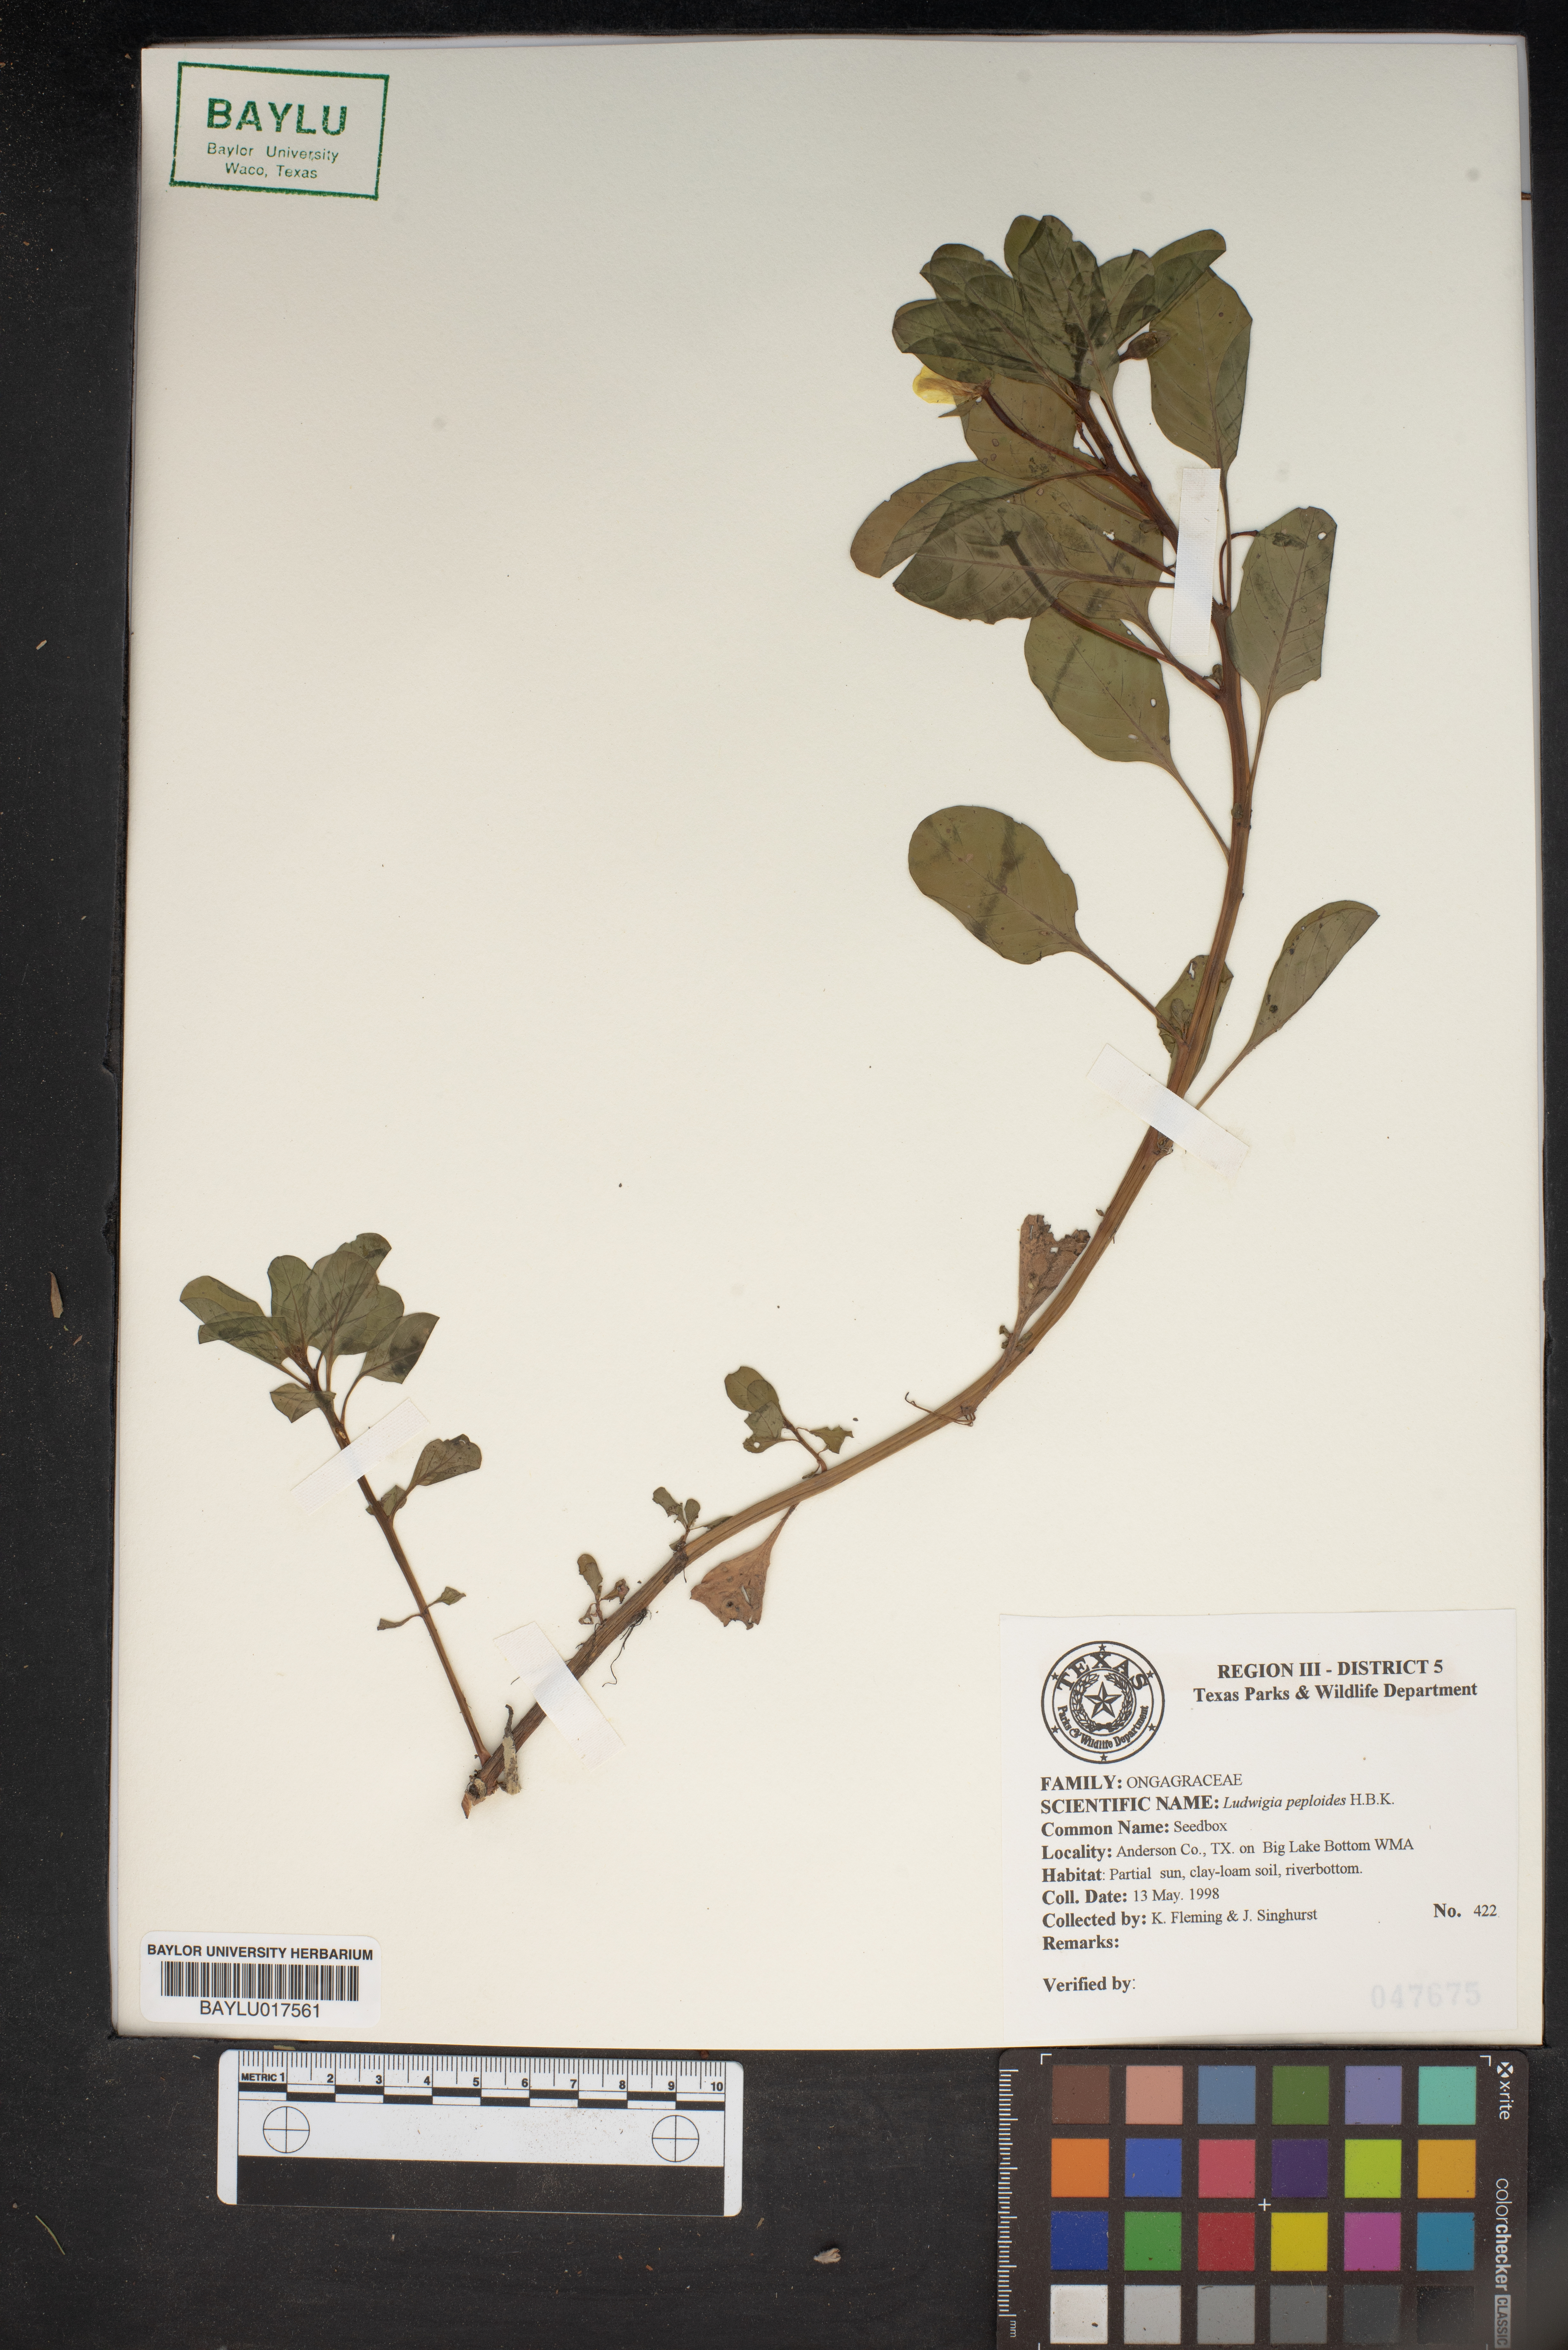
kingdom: Plantae
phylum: Tracheophyta
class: Magnoliopsida
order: Myrtales
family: Onagraceae
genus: Ludwigia
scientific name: Ludwigia peploides
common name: Floating primrose-willow
